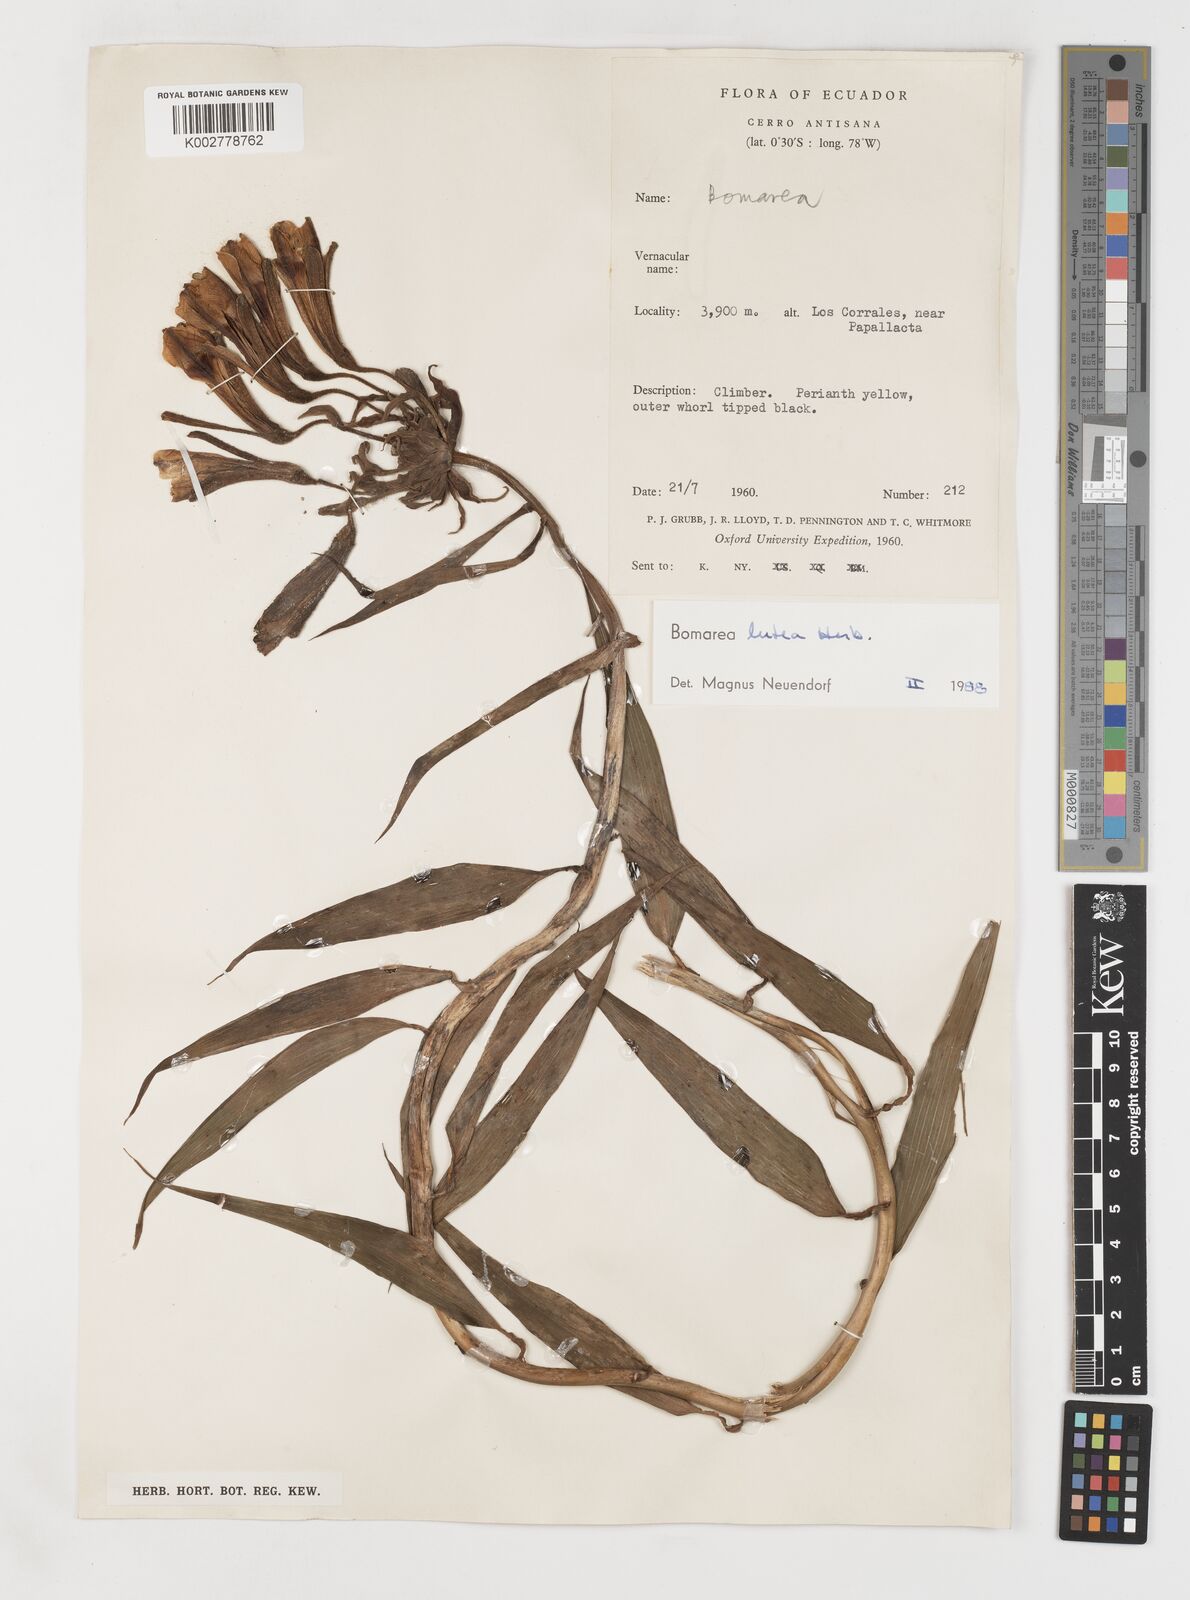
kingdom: Plantae
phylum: Tracheophyta
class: Liliopsida
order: Liliales
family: Alstroemeriaceae
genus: Bomarea
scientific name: Bomarea lutea
